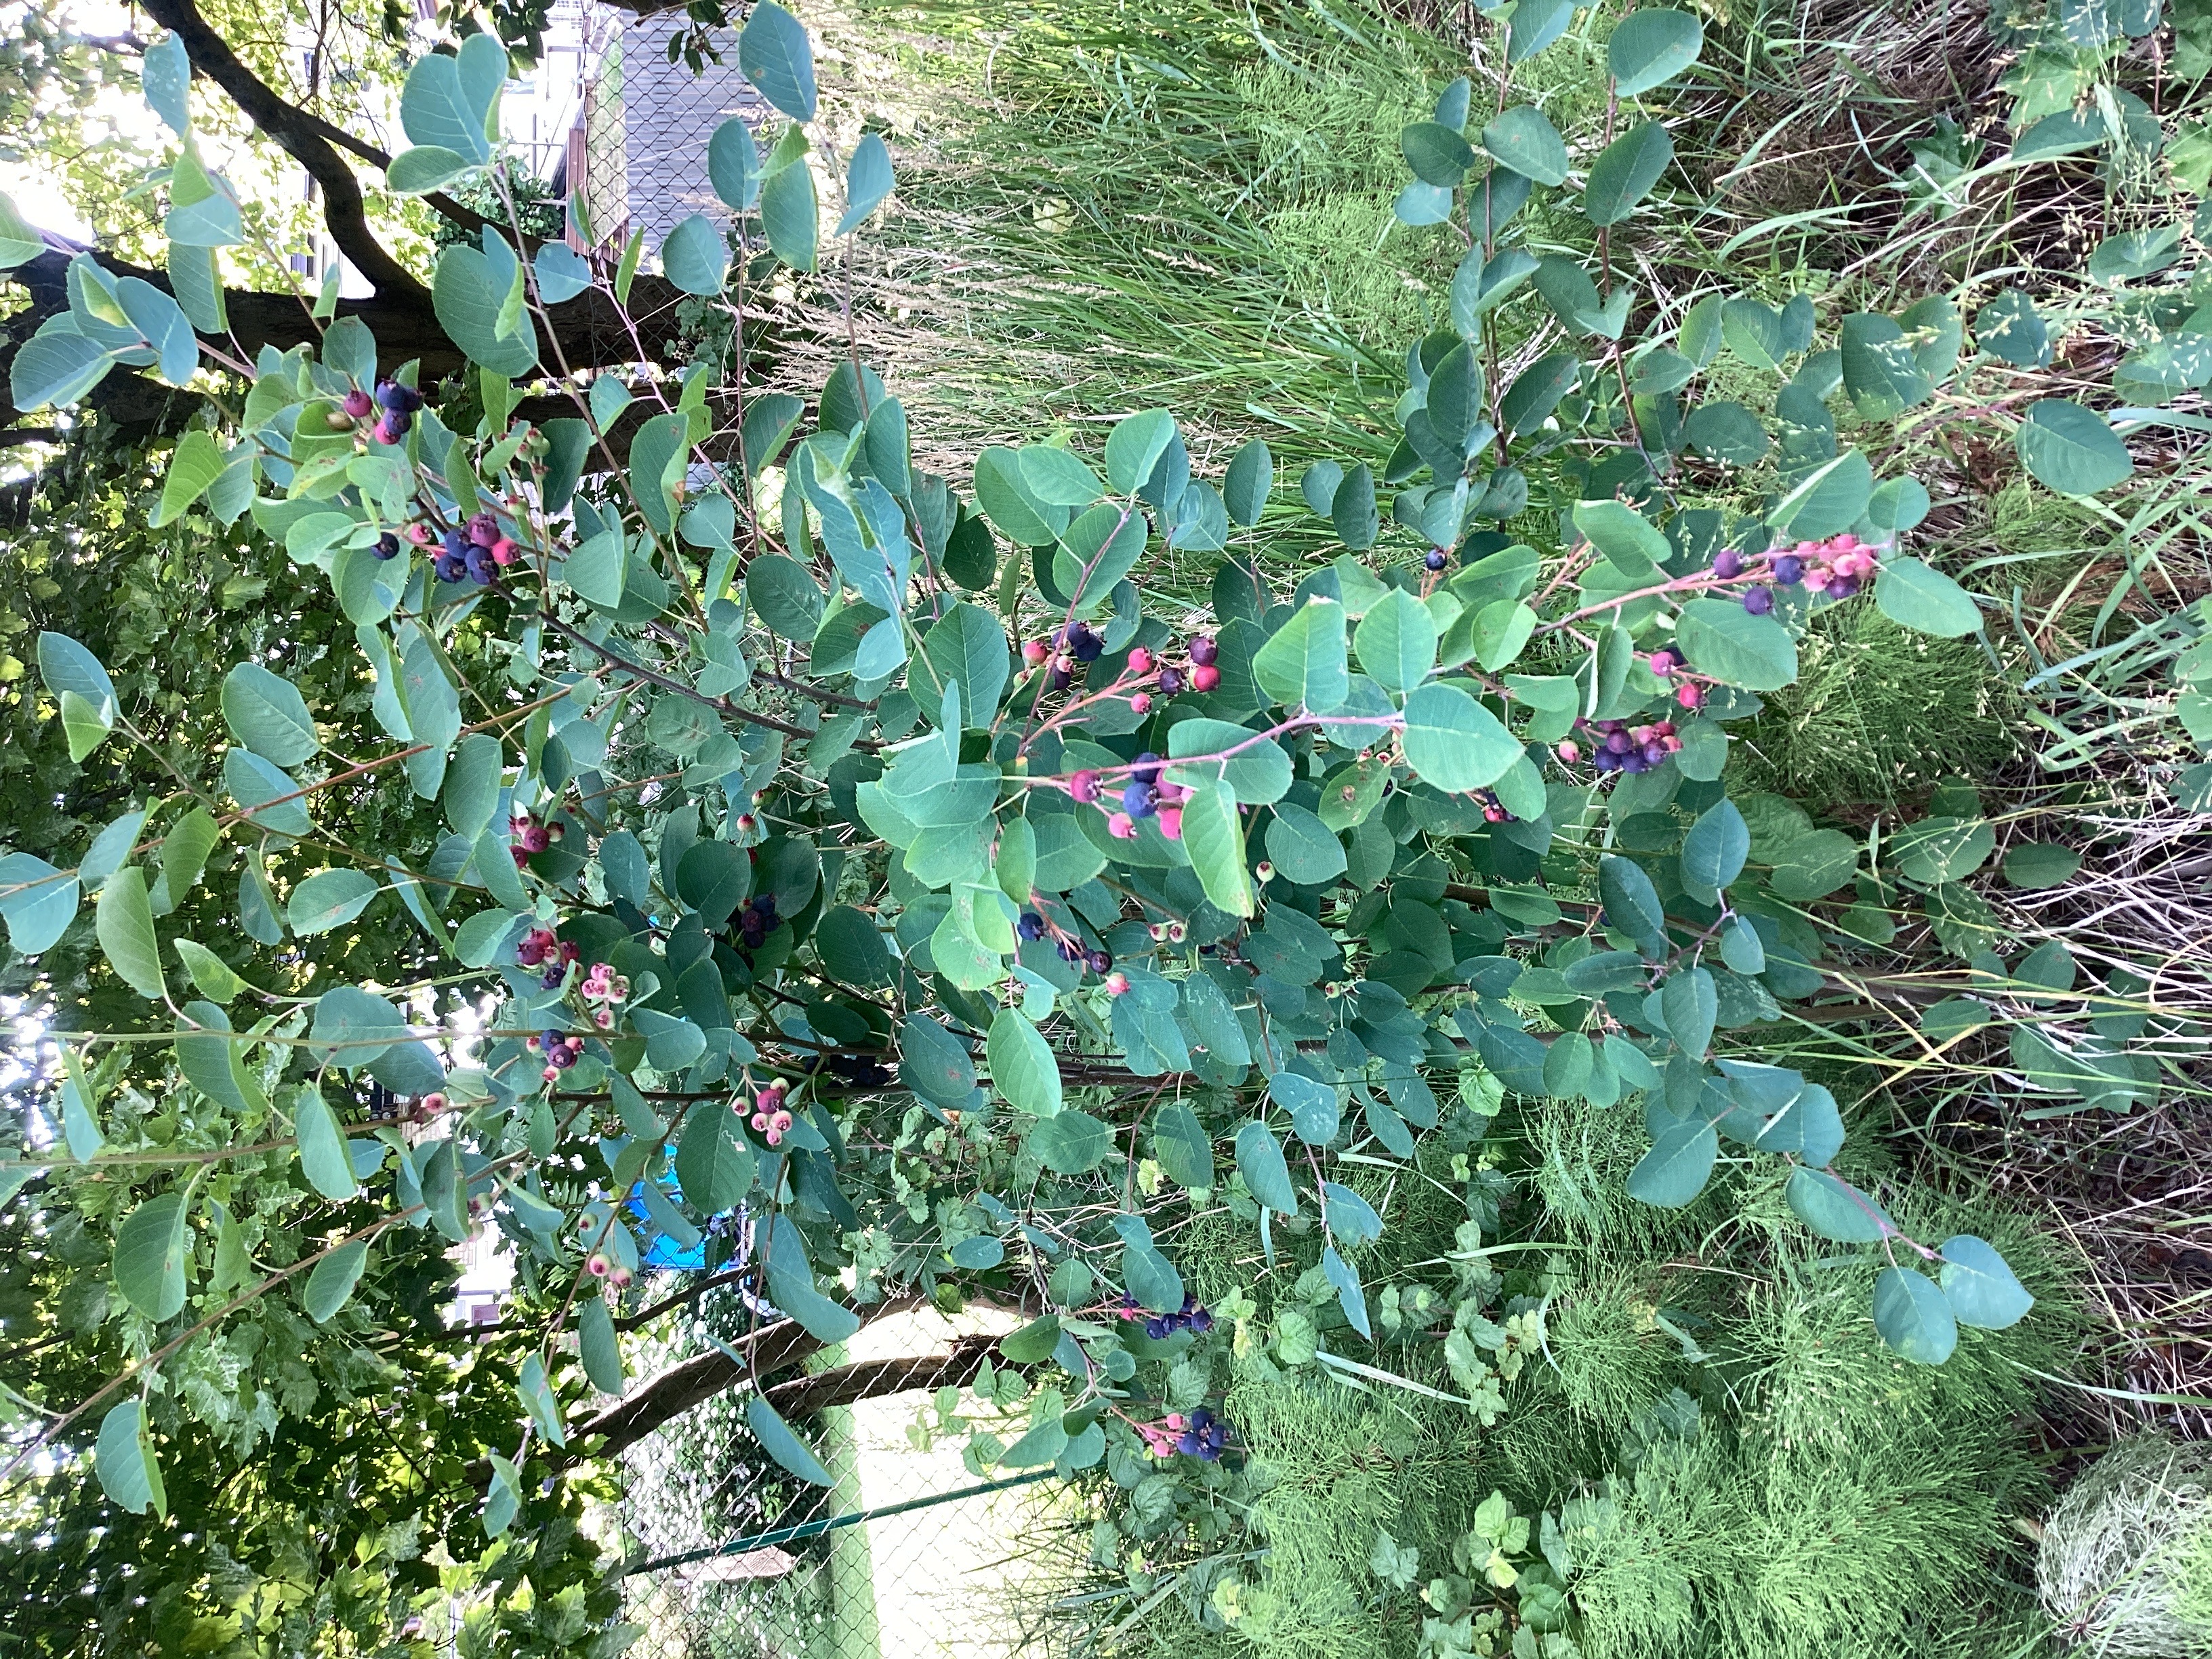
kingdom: Plantae
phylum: Tracheophyta
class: Magnoliopsida
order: Rosales
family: Rosaceae
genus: Amelanchier
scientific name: Amelanchier humilis
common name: blåhegg
